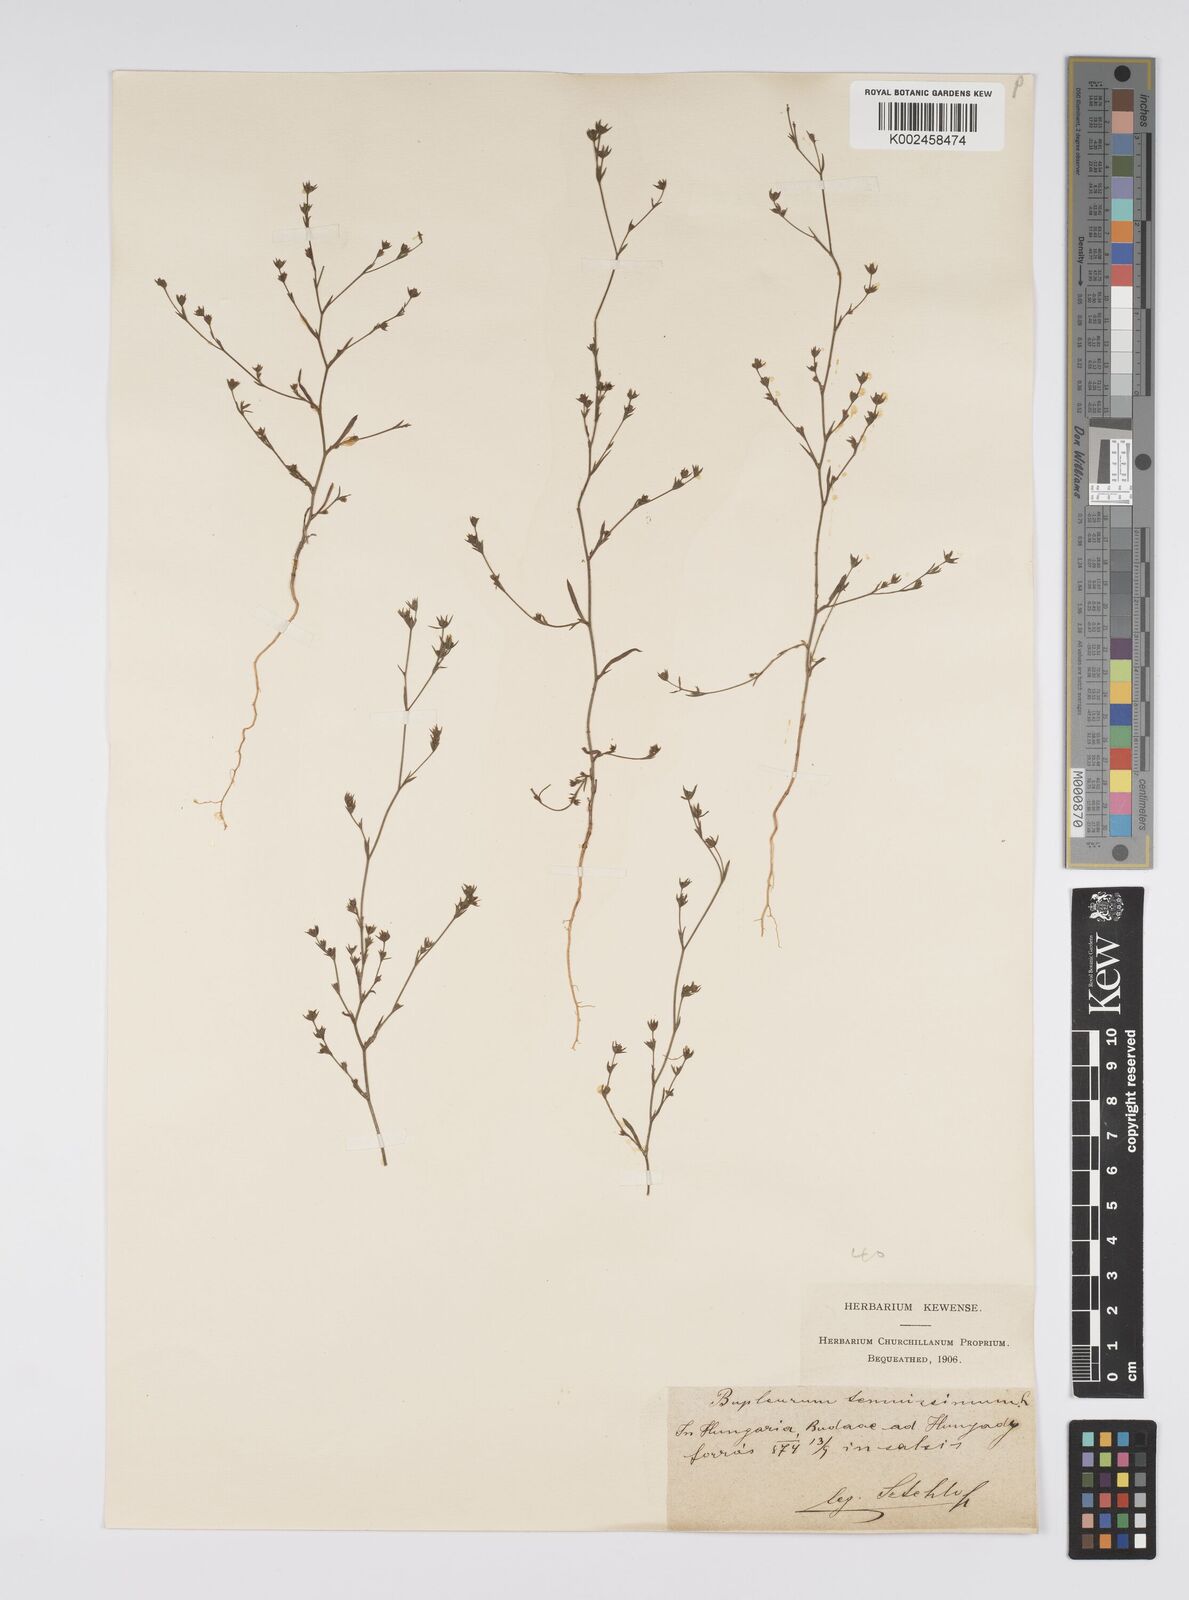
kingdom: Plantae
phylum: Tracheophyta
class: Magnoliopsida
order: Apiales
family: Apiaceae
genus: Bupleurum
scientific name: Bupleurum tenuissimum
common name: Slender hare's-ear
